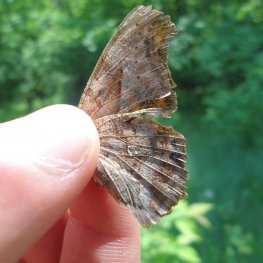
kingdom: Animalia
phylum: Arthropoda
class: Insecta
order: Lepidoptera
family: Nymphalidae
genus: Polygonia
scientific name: Polygonia interrogationis
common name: Question Mark
